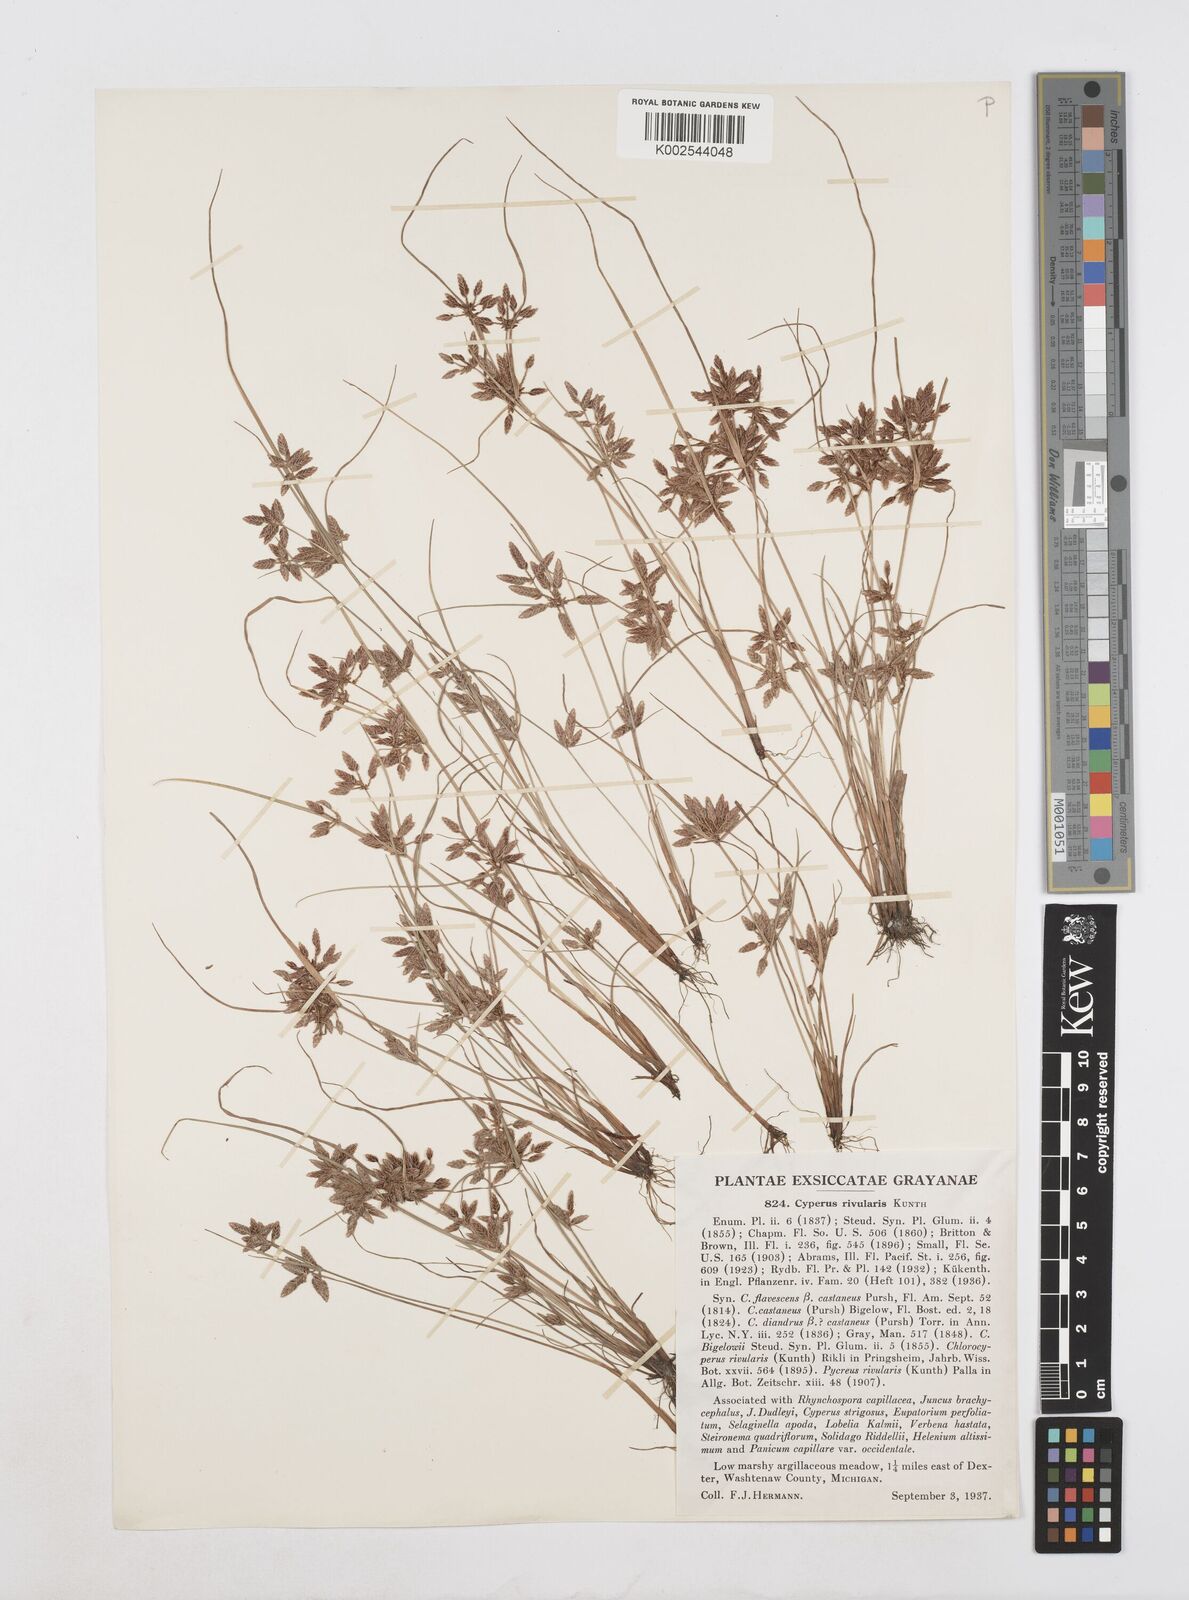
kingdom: Plantae
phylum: Tracheophyta
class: Liliopsida
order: Poales
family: Cyperaceae
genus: Cyperus
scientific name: Cyperus bipartitus
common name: Brook flatsedge
